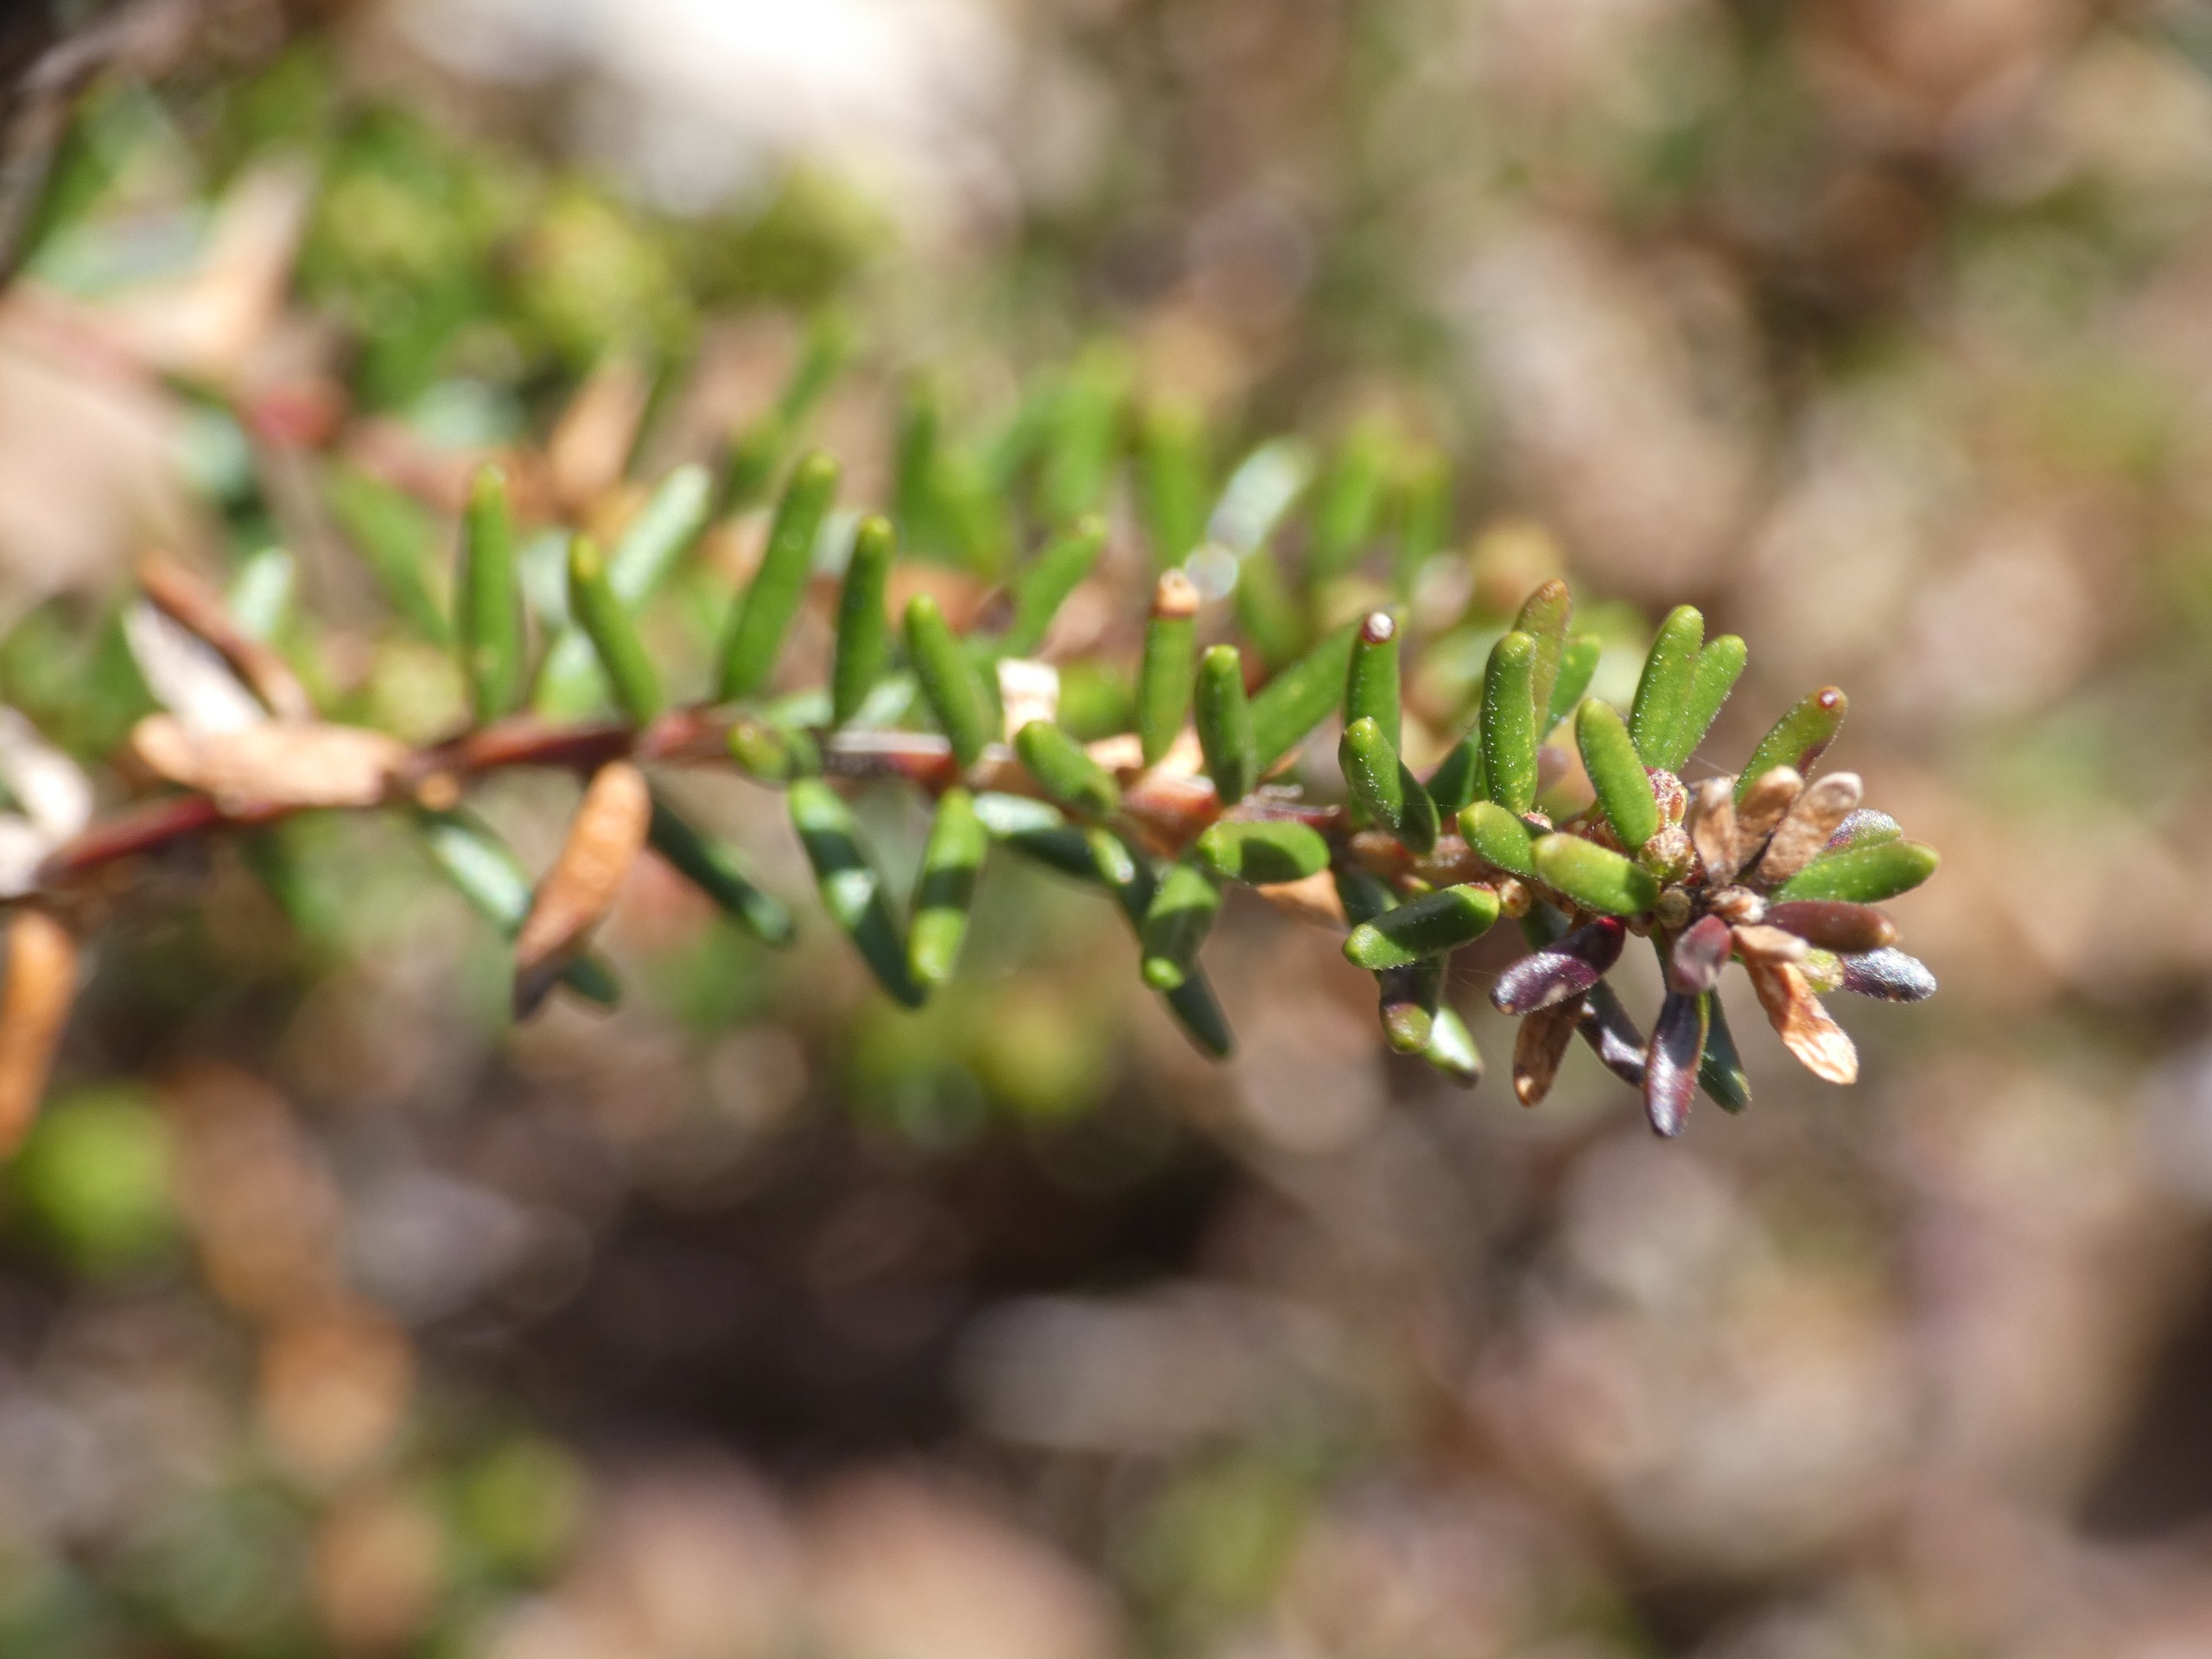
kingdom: Plantae
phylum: Tracheophyta
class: Magnoliopsida
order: Ericales
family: Ericaceae
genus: Empetrum
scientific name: Empetrum nigrum
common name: Revling
